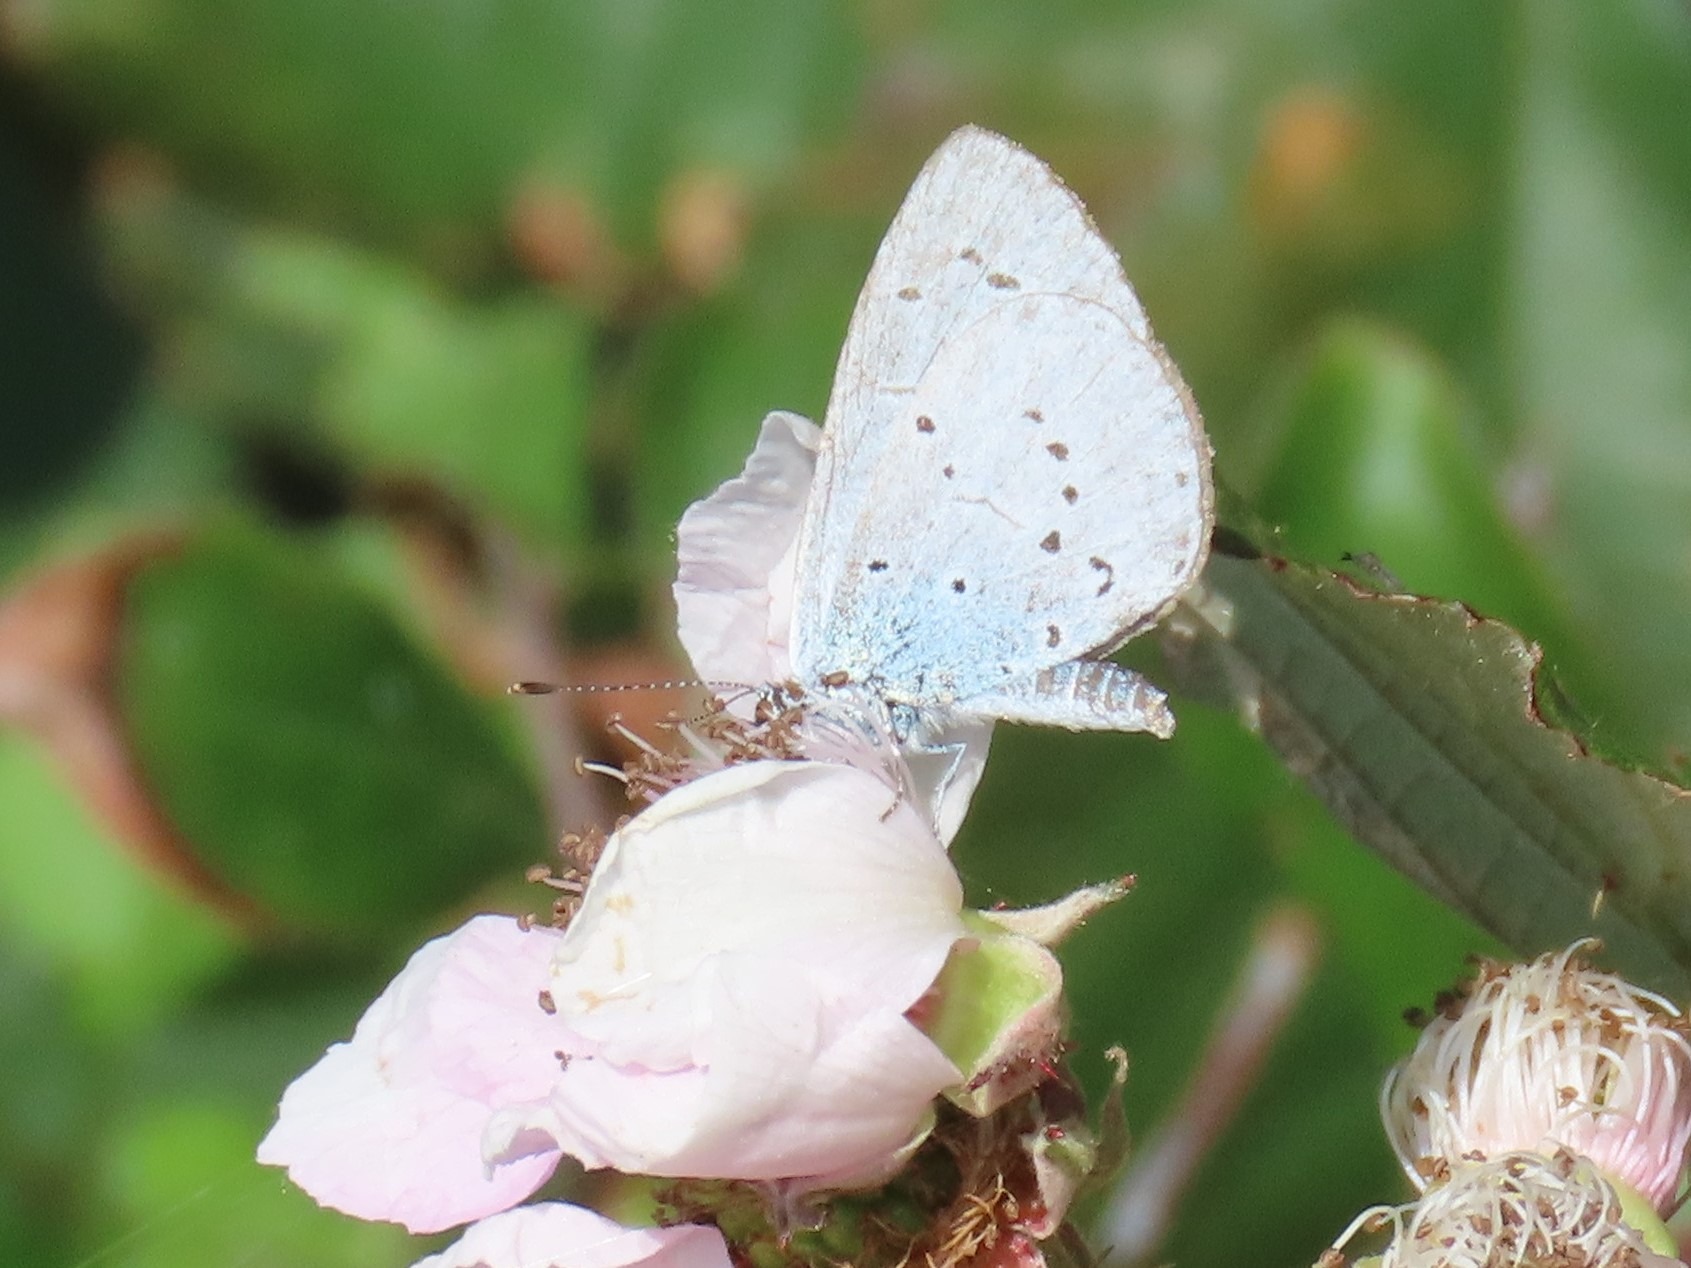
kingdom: Animalia
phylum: Arthropoda
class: Insecta
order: Lepidoptera
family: Lycaenidae
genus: Celastrina
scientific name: Celastrina argiolus
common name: Skovblåfugl
